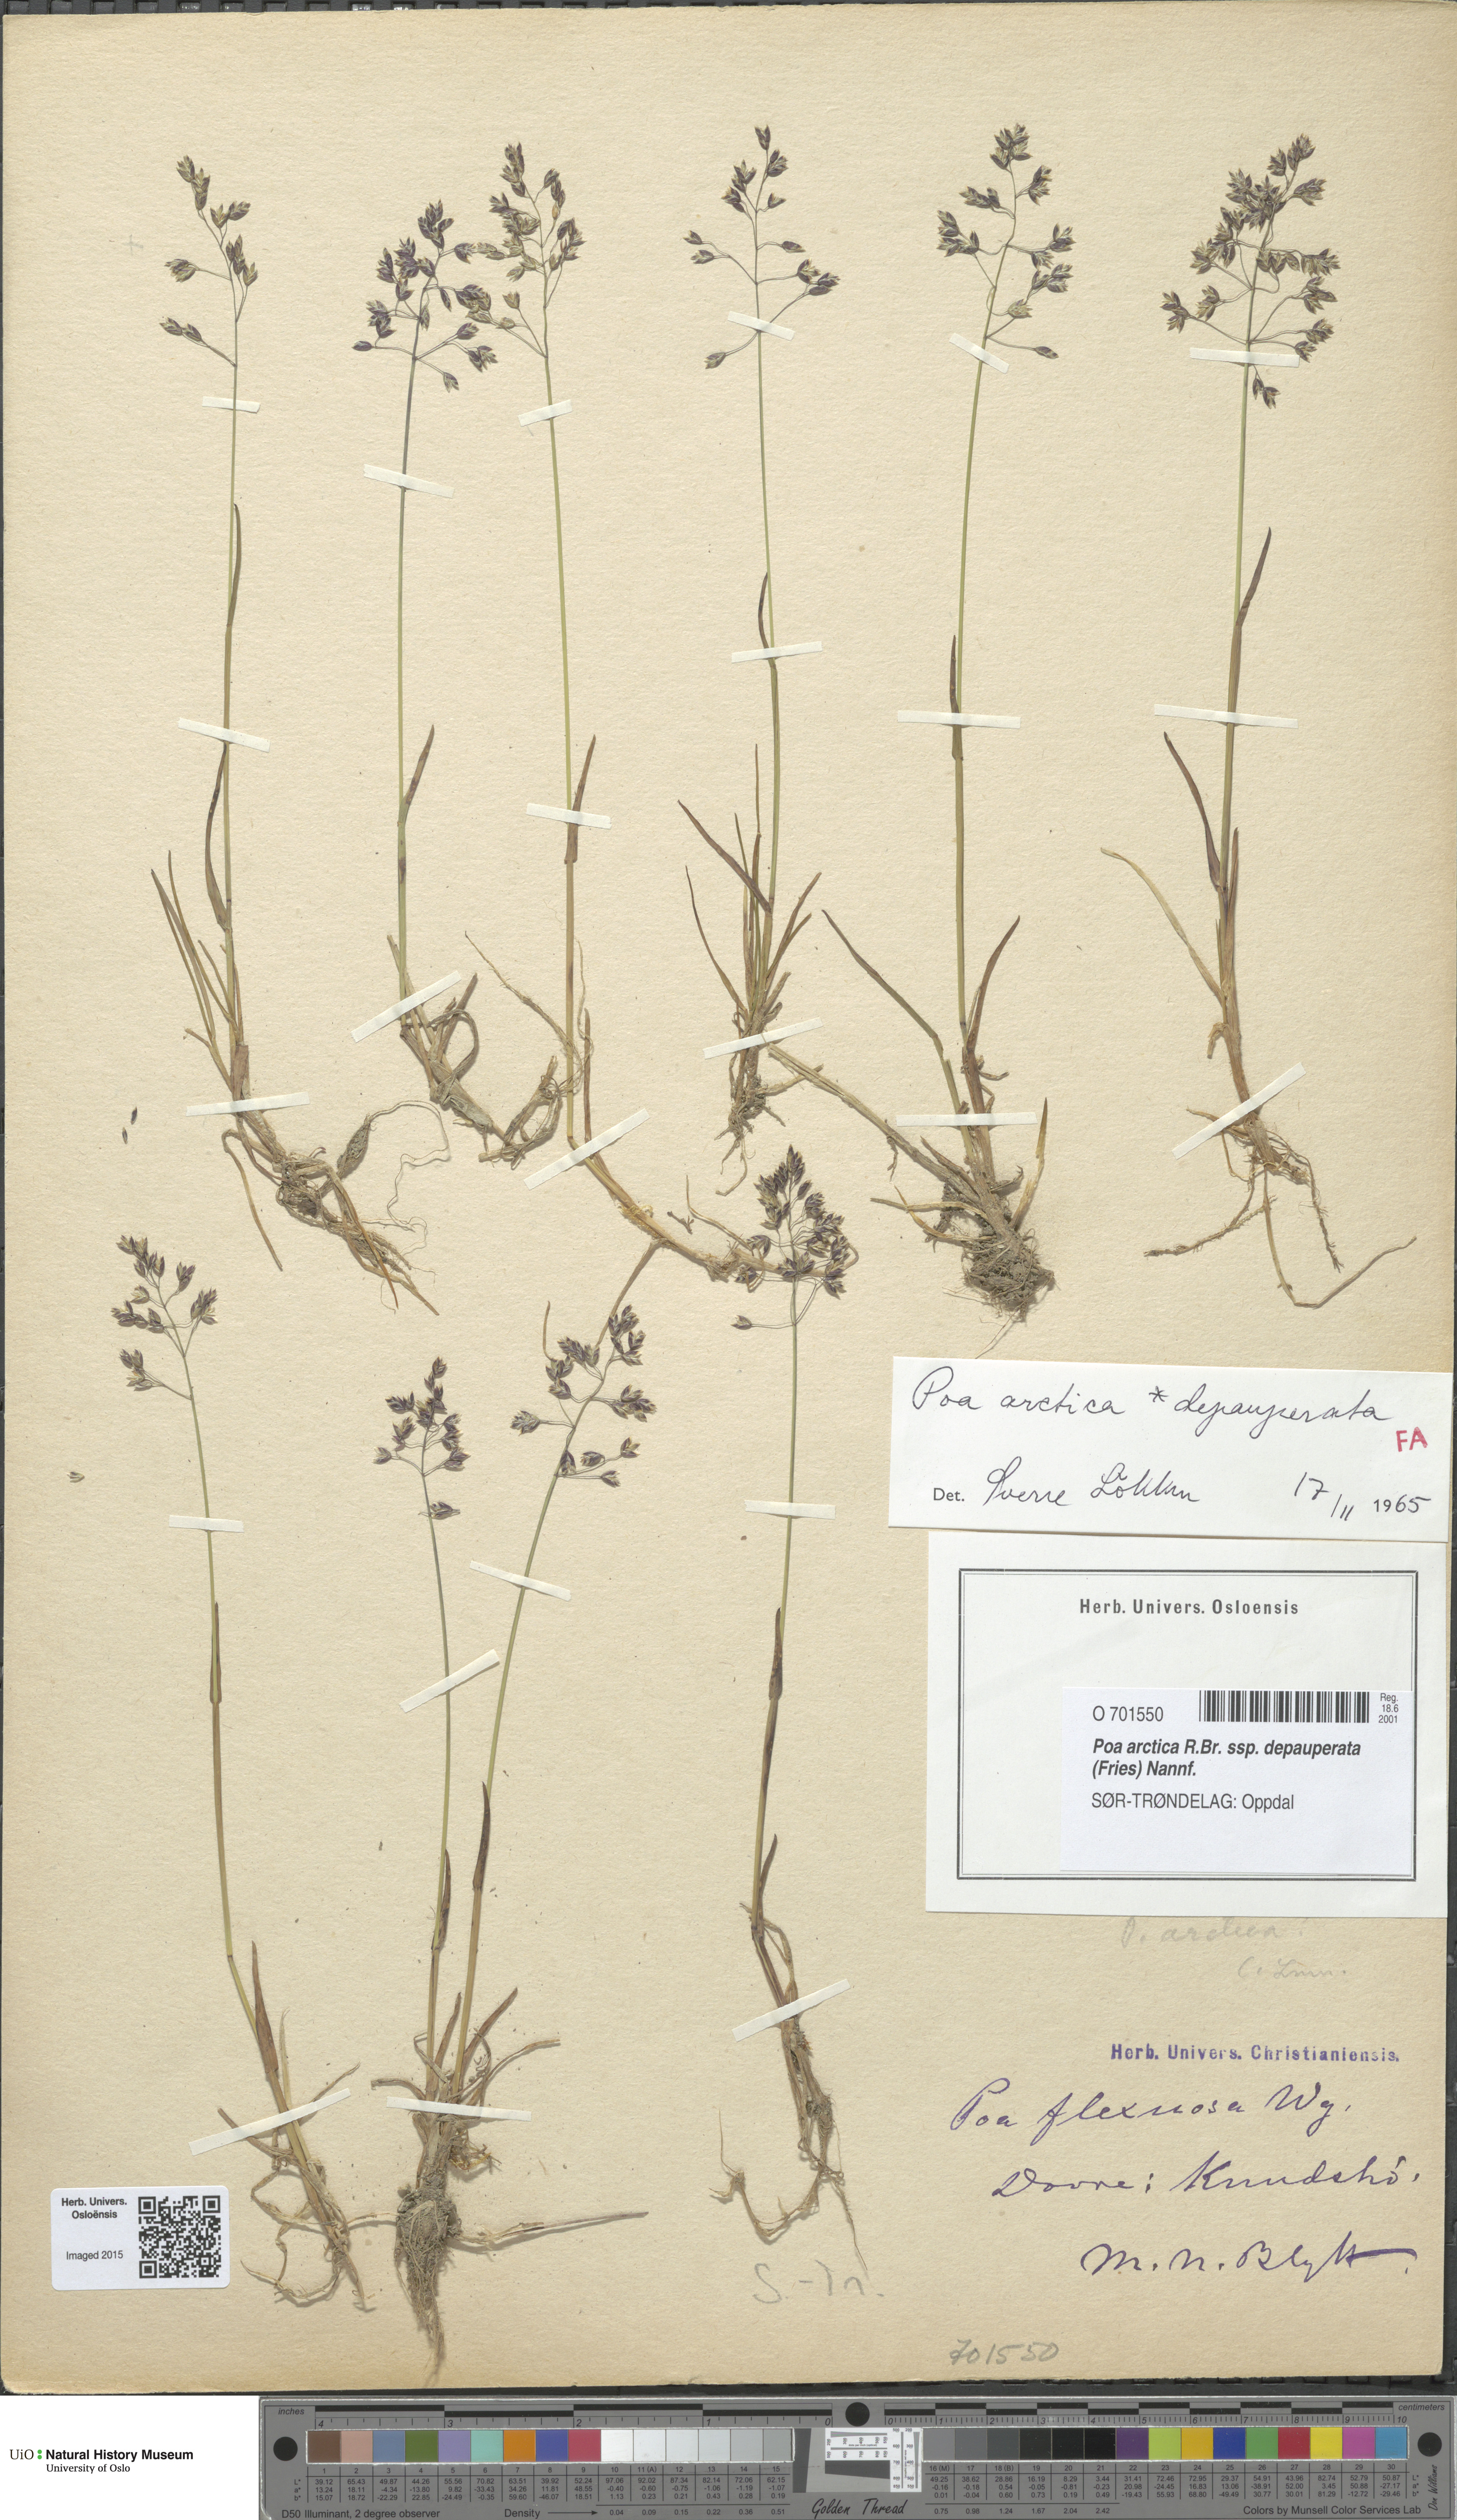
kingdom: Plantae
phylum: Tracheophyta
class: Liliopsida
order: Poales
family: Poaceae
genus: Poa
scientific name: Poa arctica
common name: Arctic bluegrass
